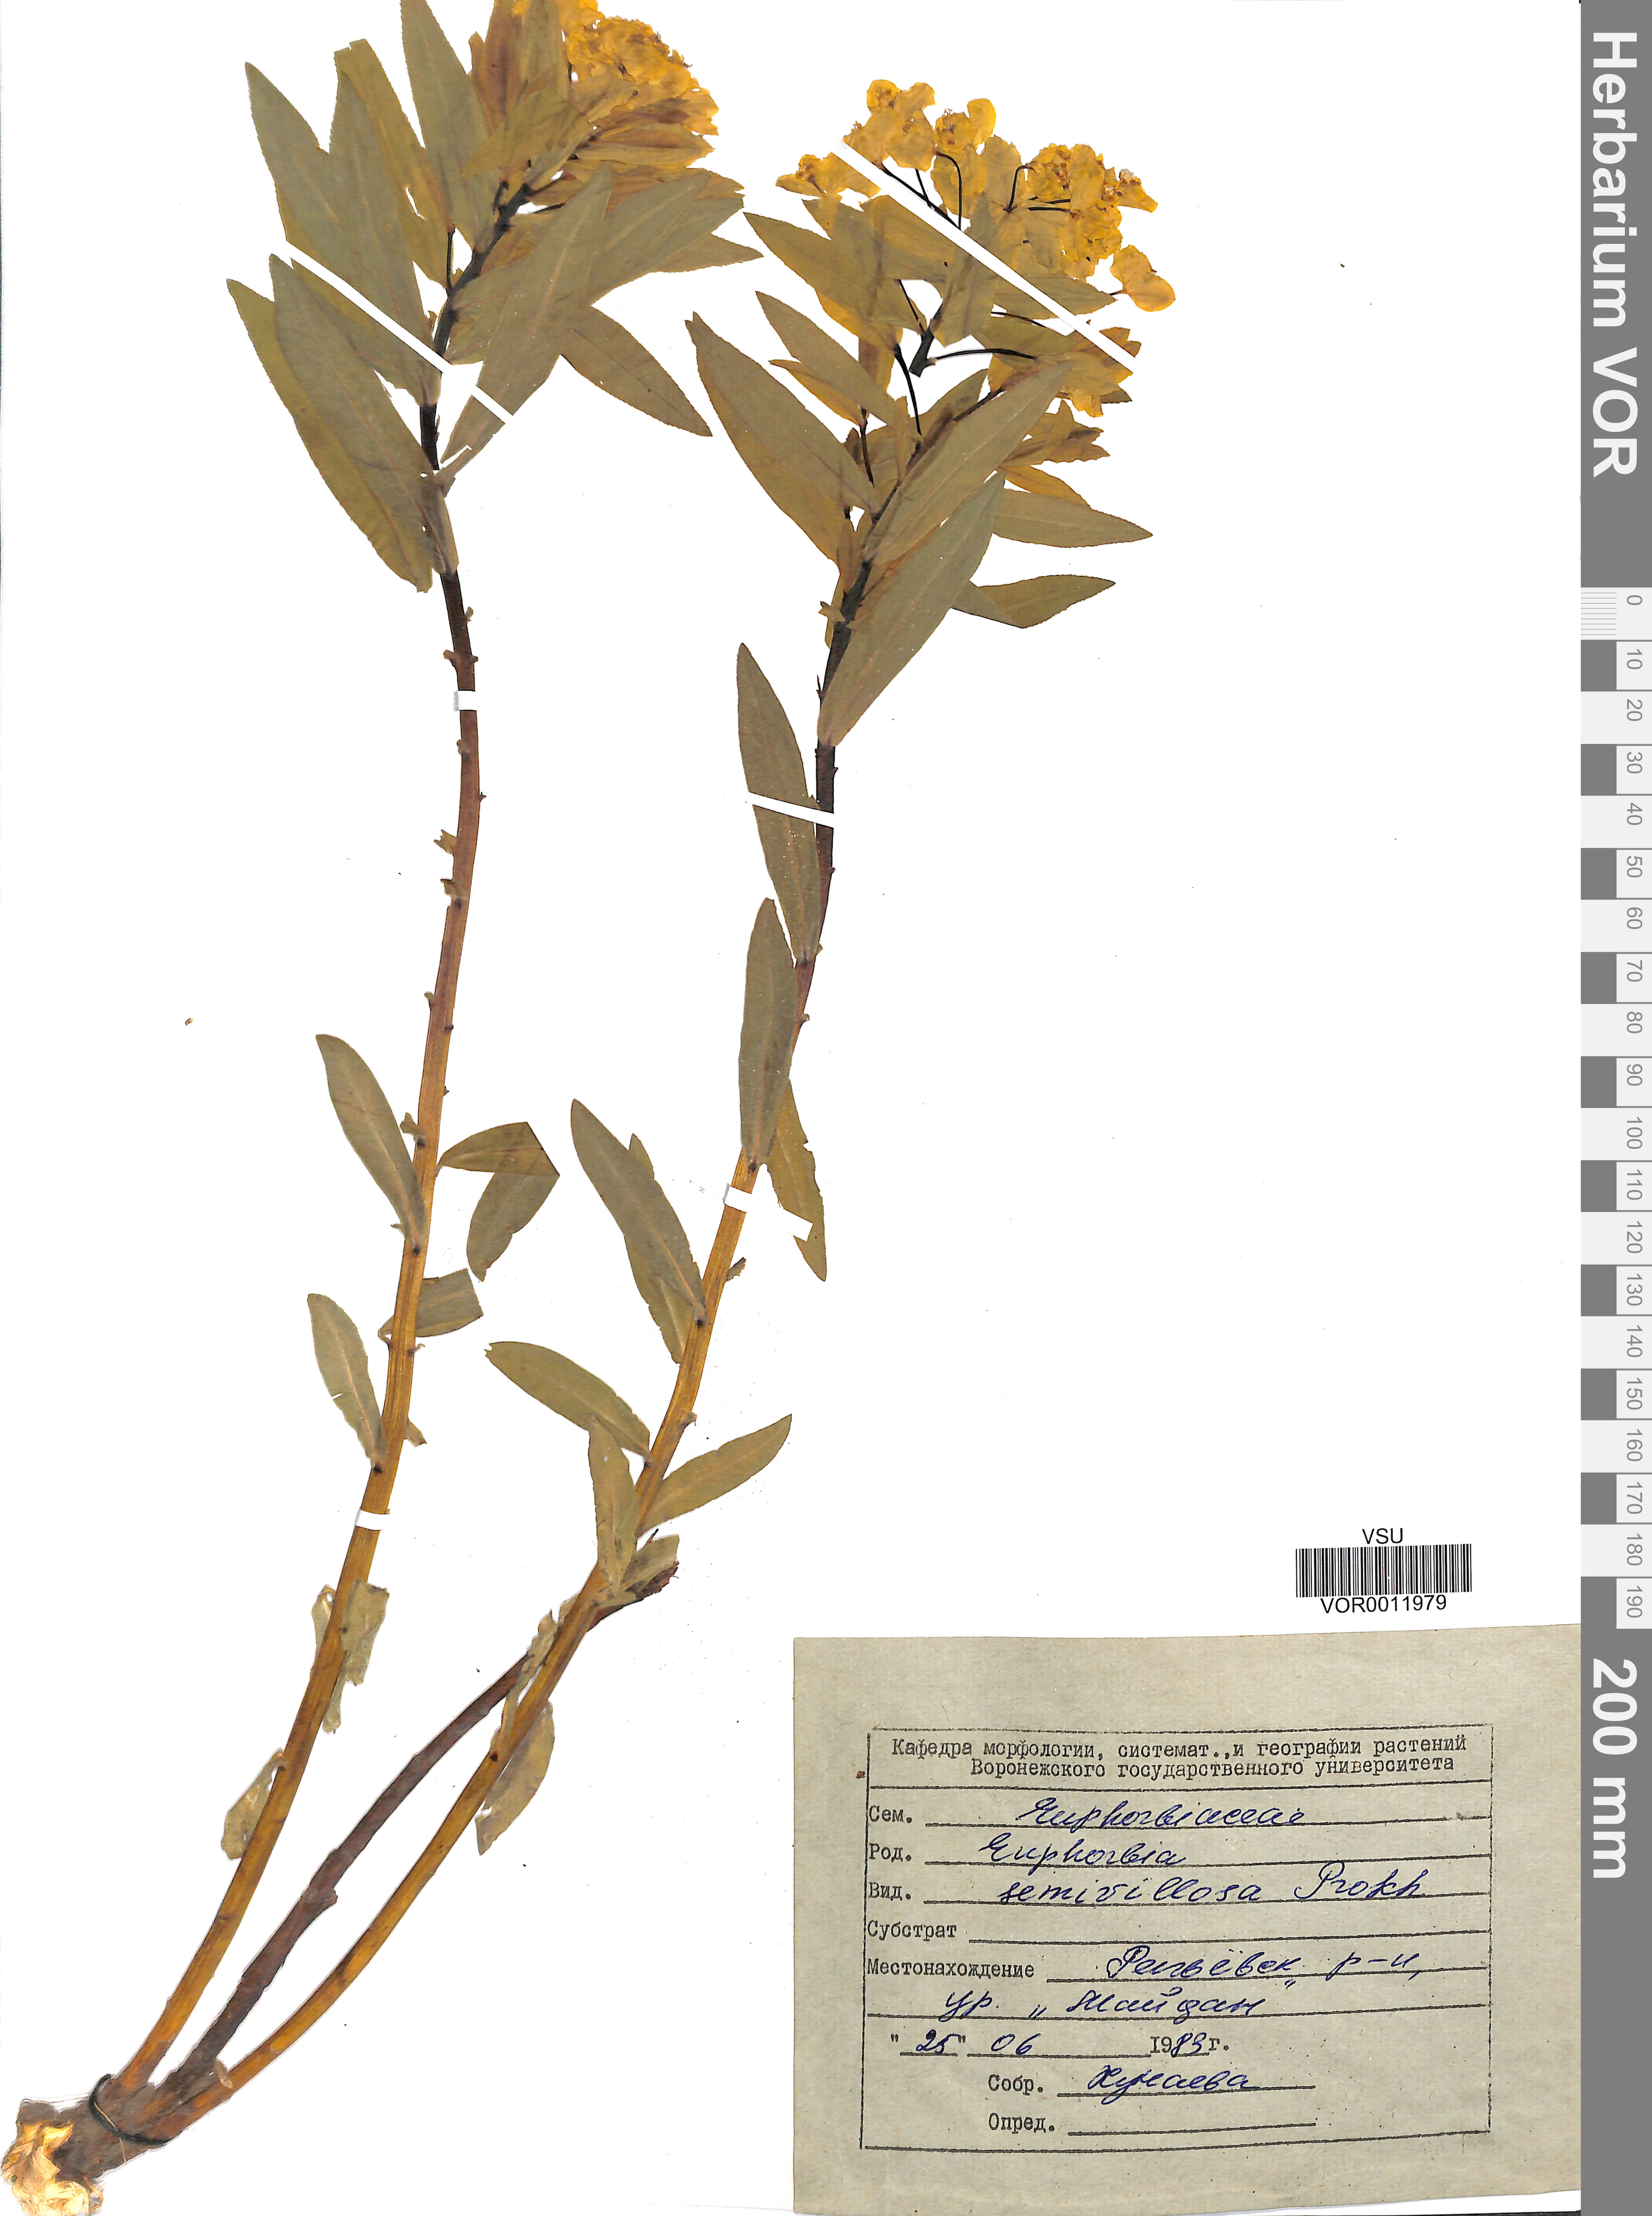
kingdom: Plantae
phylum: Tracheophyta
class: Magnoliopsida
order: Malpighiales
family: Euphorbiaceae
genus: Euphorbia
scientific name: Euphorbia semivillosa
